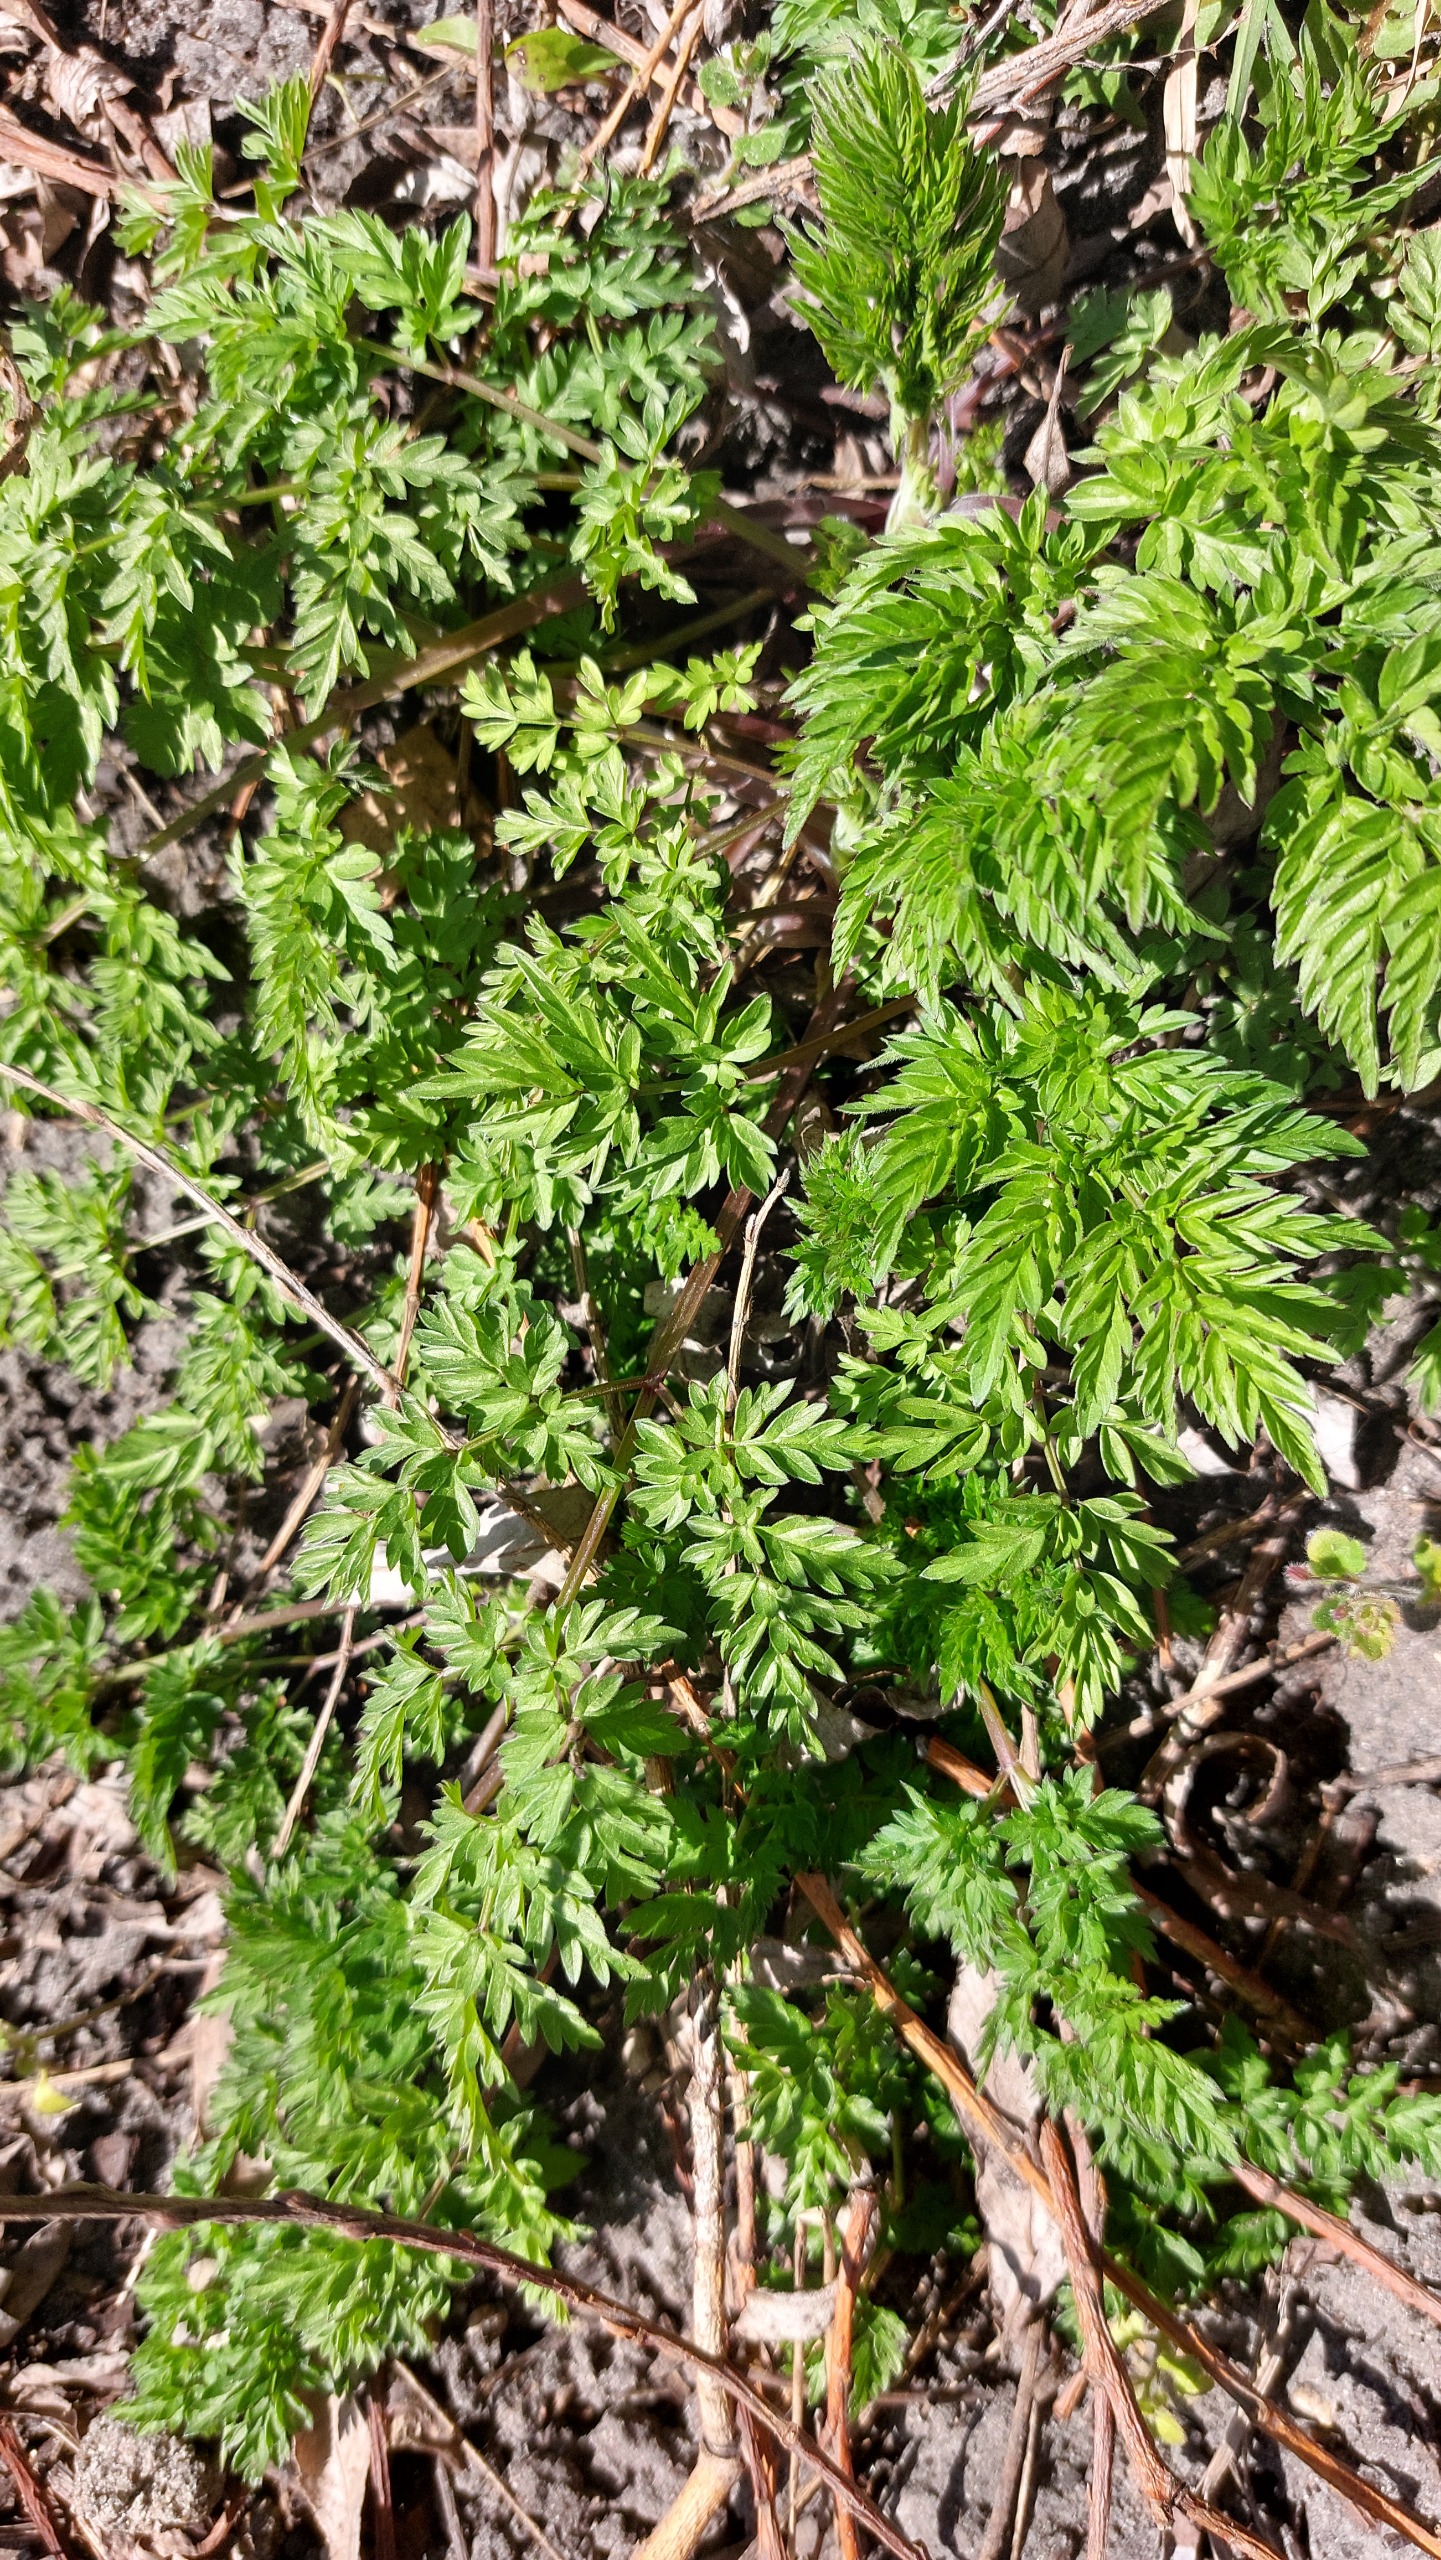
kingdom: Plantae
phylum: Tracheophyta
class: Magnoliopsida
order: Apiales
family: Apiaceae
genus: Anthriscus
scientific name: Anthriscus sylvestris
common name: Vild kørvel
